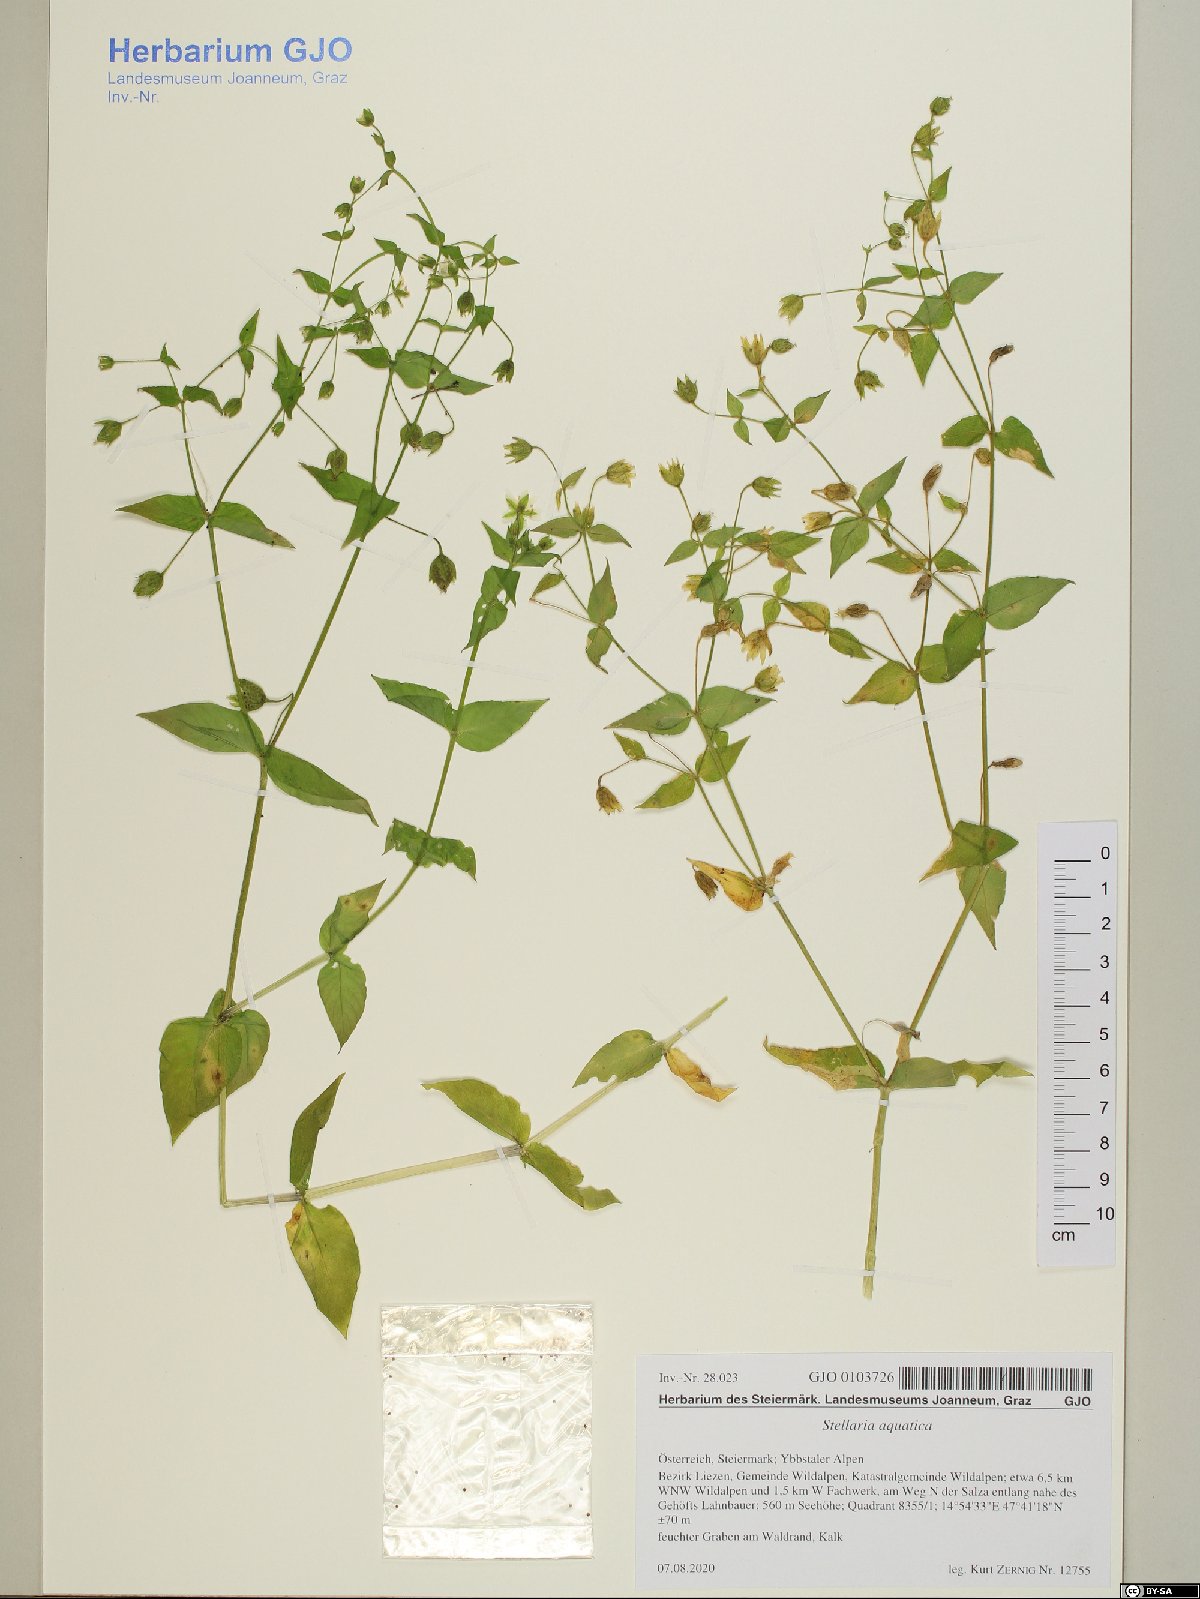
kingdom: Plantae
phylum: Tracheophyta
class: Magnoliopsida
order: Caryophyllales
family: Caryophyllaceae
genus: Stellaria
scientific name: Stellaria aquatica
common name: Water chickweed
